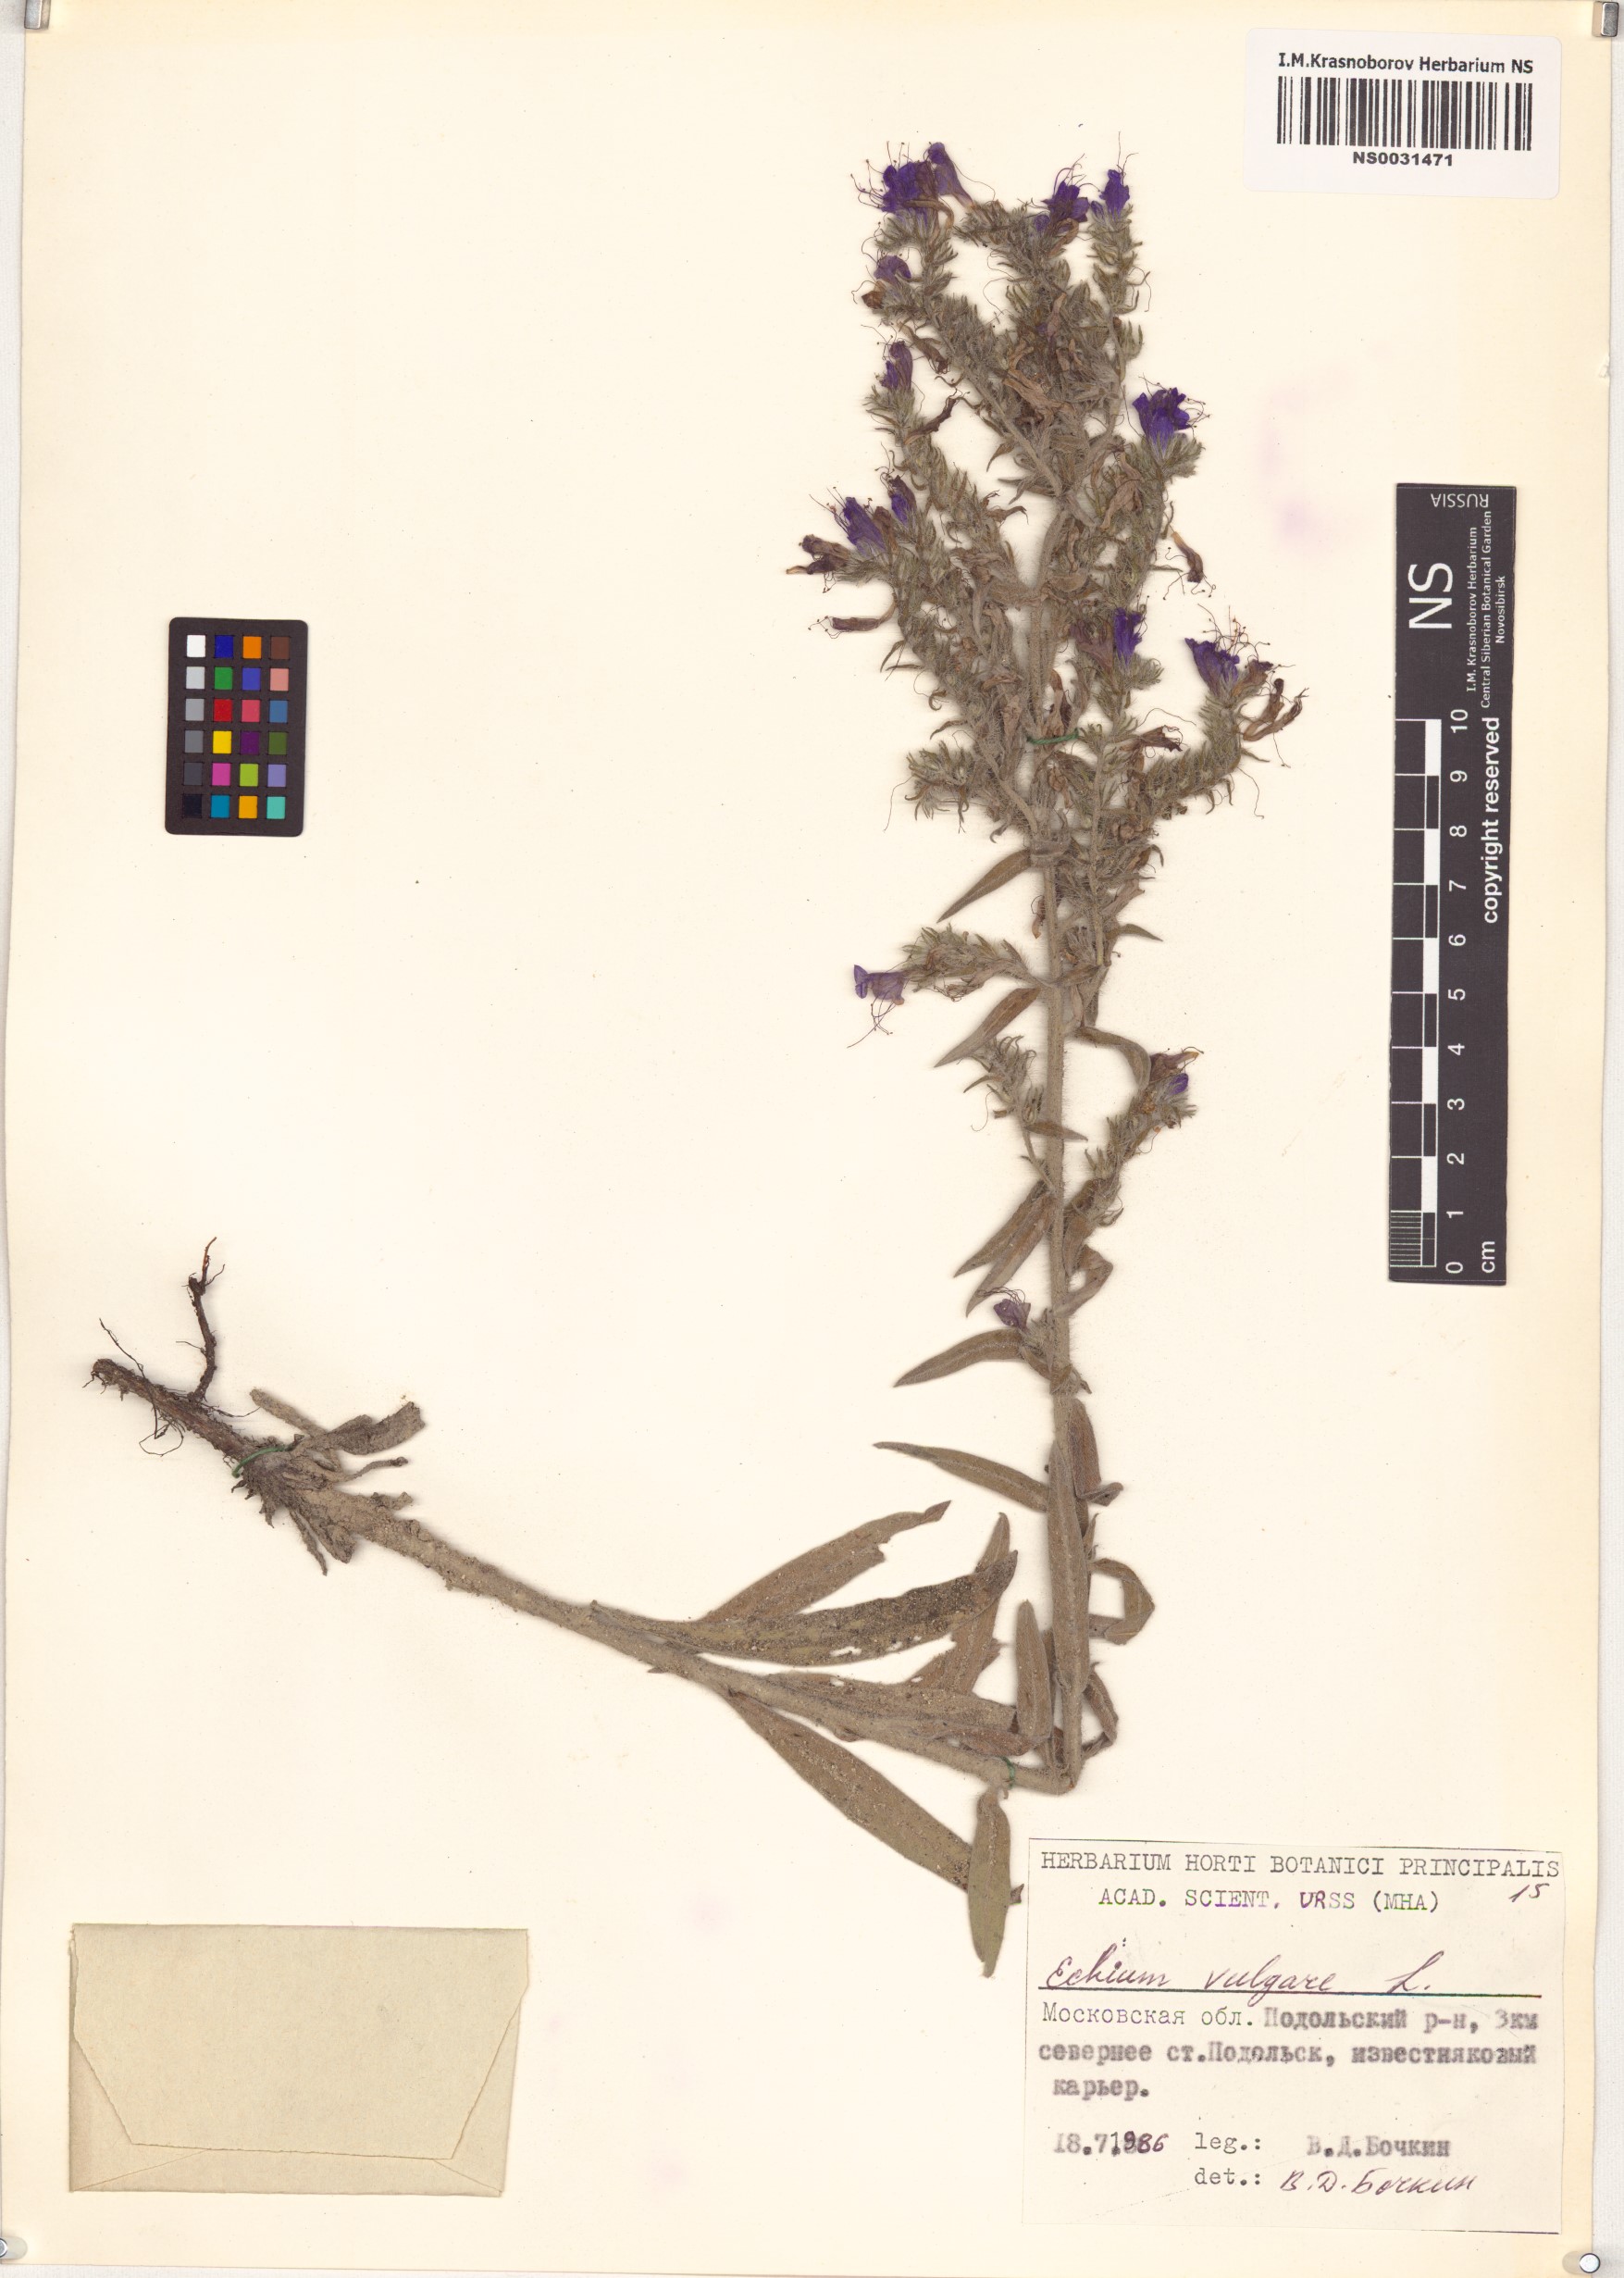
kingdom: Plantae
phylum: Tracheophyta
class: Magnoliopsida
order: Boraginales
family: Boraginaceae
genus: Echium
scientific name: Echium vulgare
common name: Common viper's bugloss
